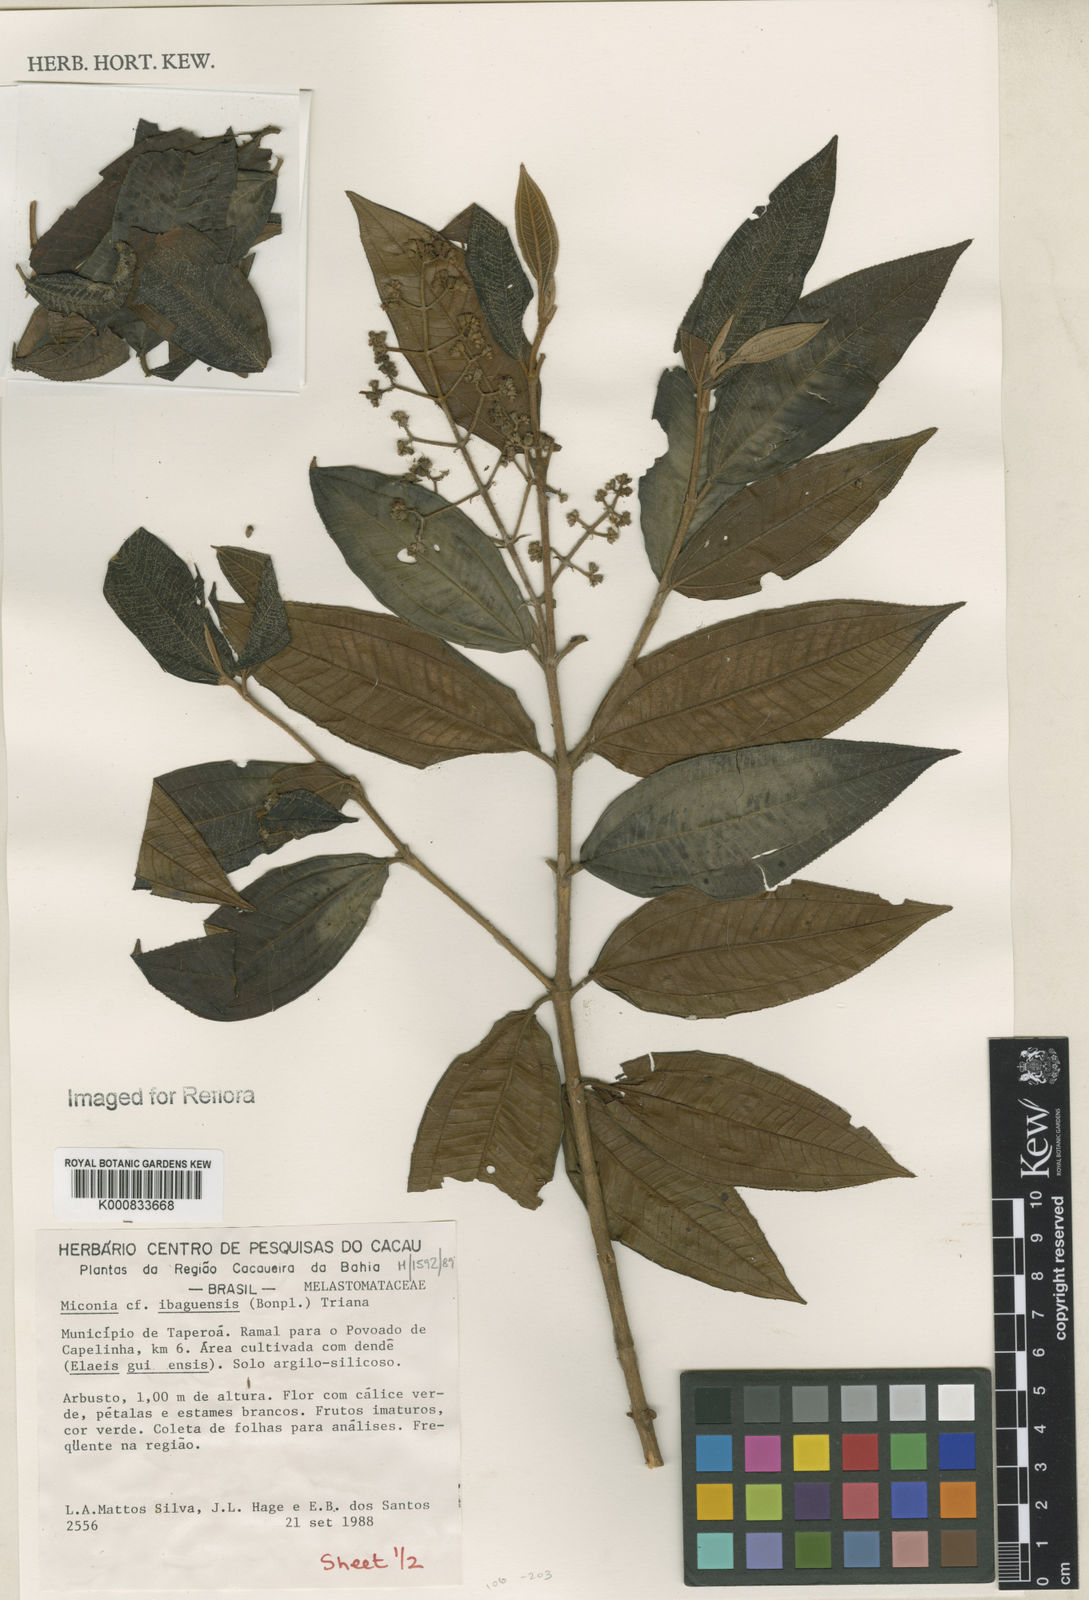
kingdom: Plantae
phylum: Tracheophyta
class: Magnoliopsida
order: Myrtales
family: Melastomataceae
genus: Miconia
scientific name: Miconia ibaguensis
